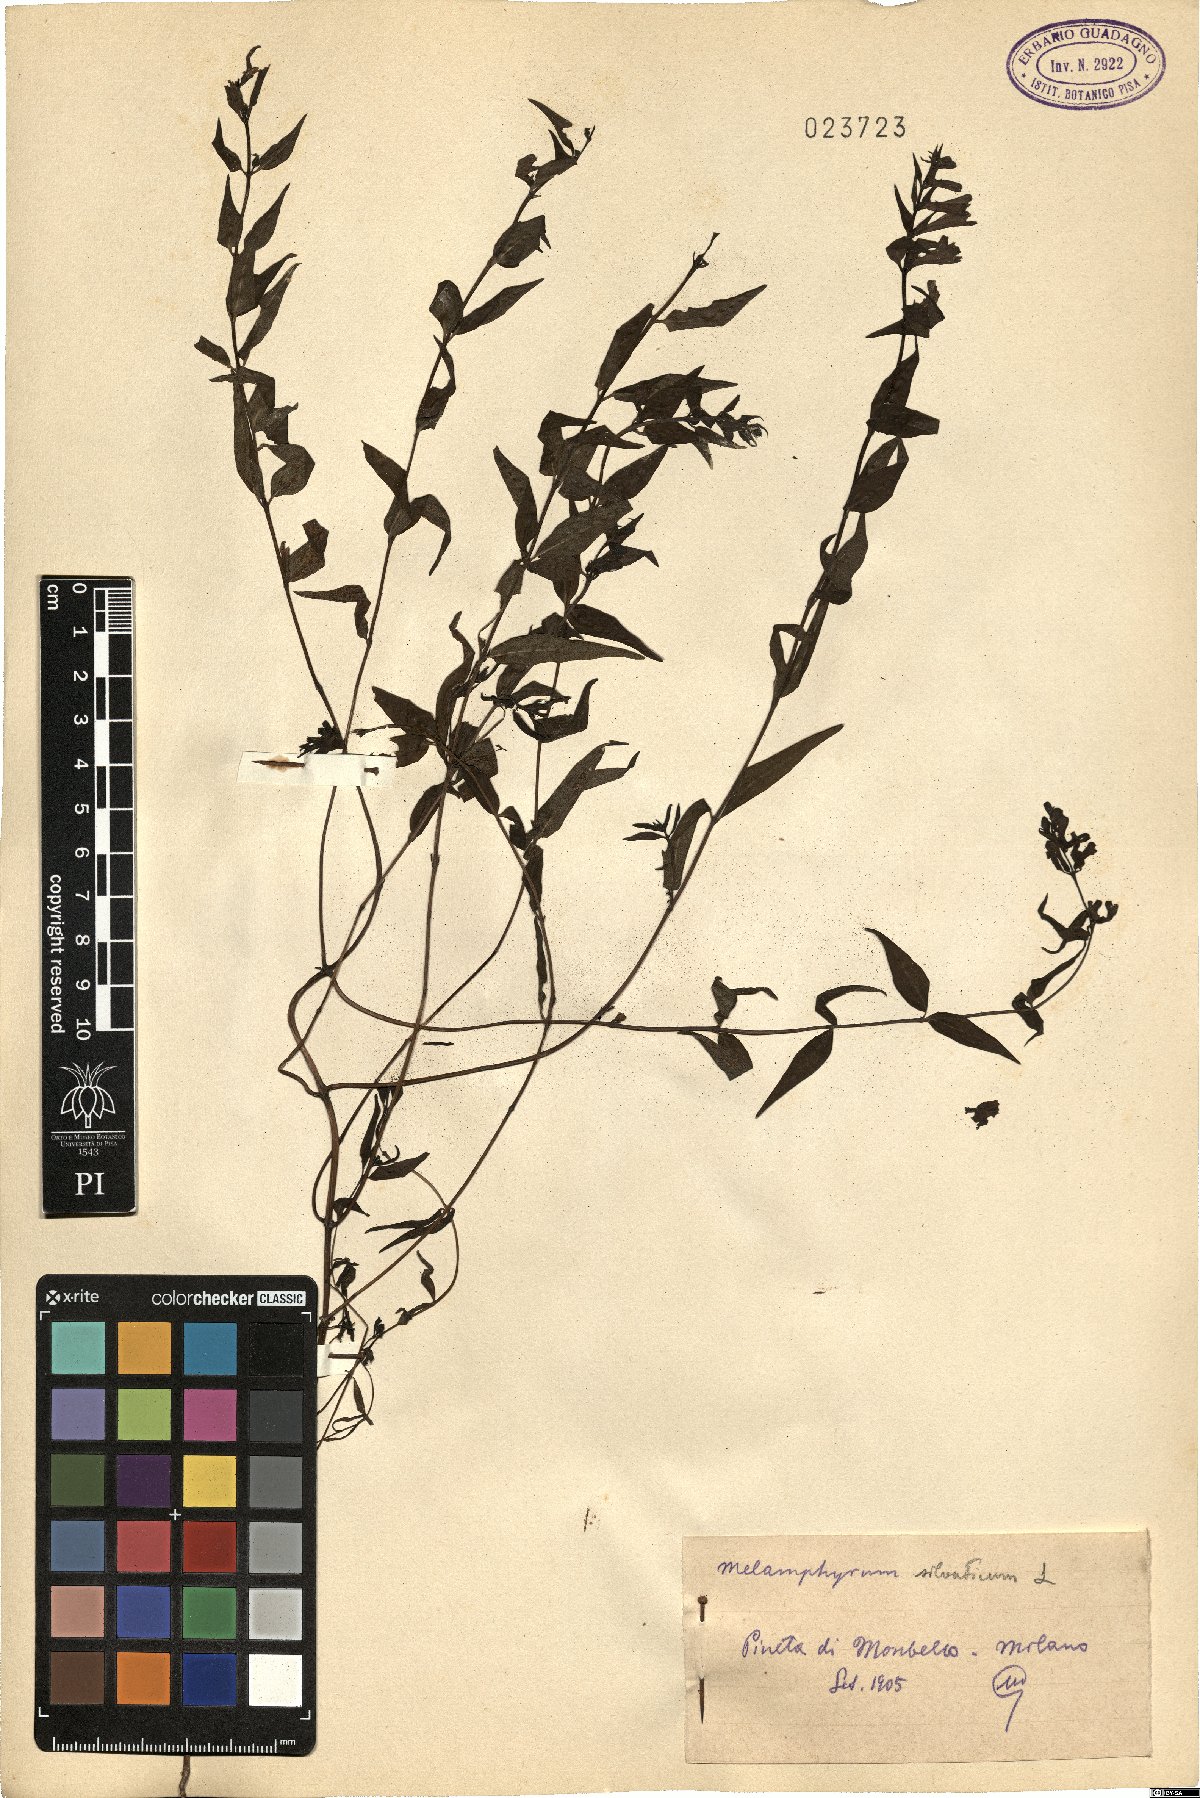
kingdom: Plantae
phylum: Tracheophyta
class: Magnoliopsida
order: Lamiales
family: Orobanchaceae
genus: Melampyrum
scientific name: Melampyrum sylvaticum
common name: Small cow-wheat
